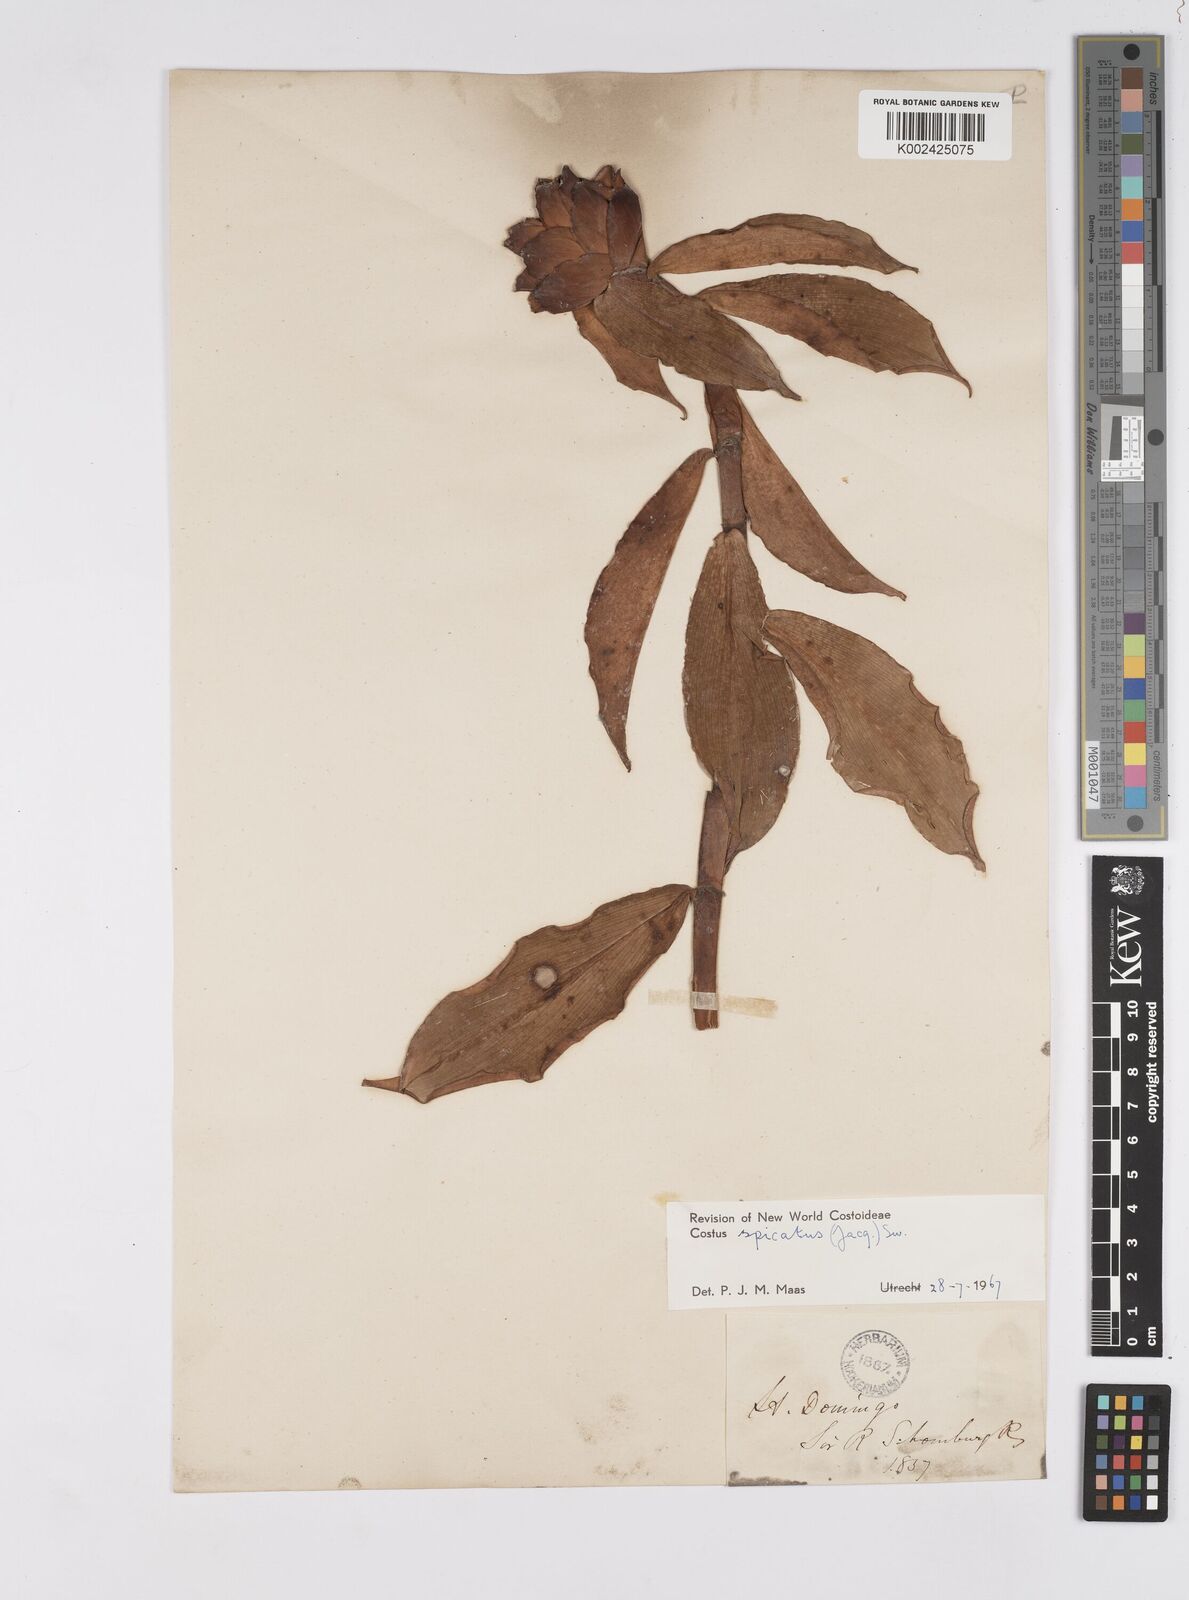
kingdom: Plantae
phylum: Tracheophyta
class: Liliopsida
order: Zingiberales
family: Costaceae
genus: Costus
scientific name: Costus spicatus
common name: Spiked spiral-flag
